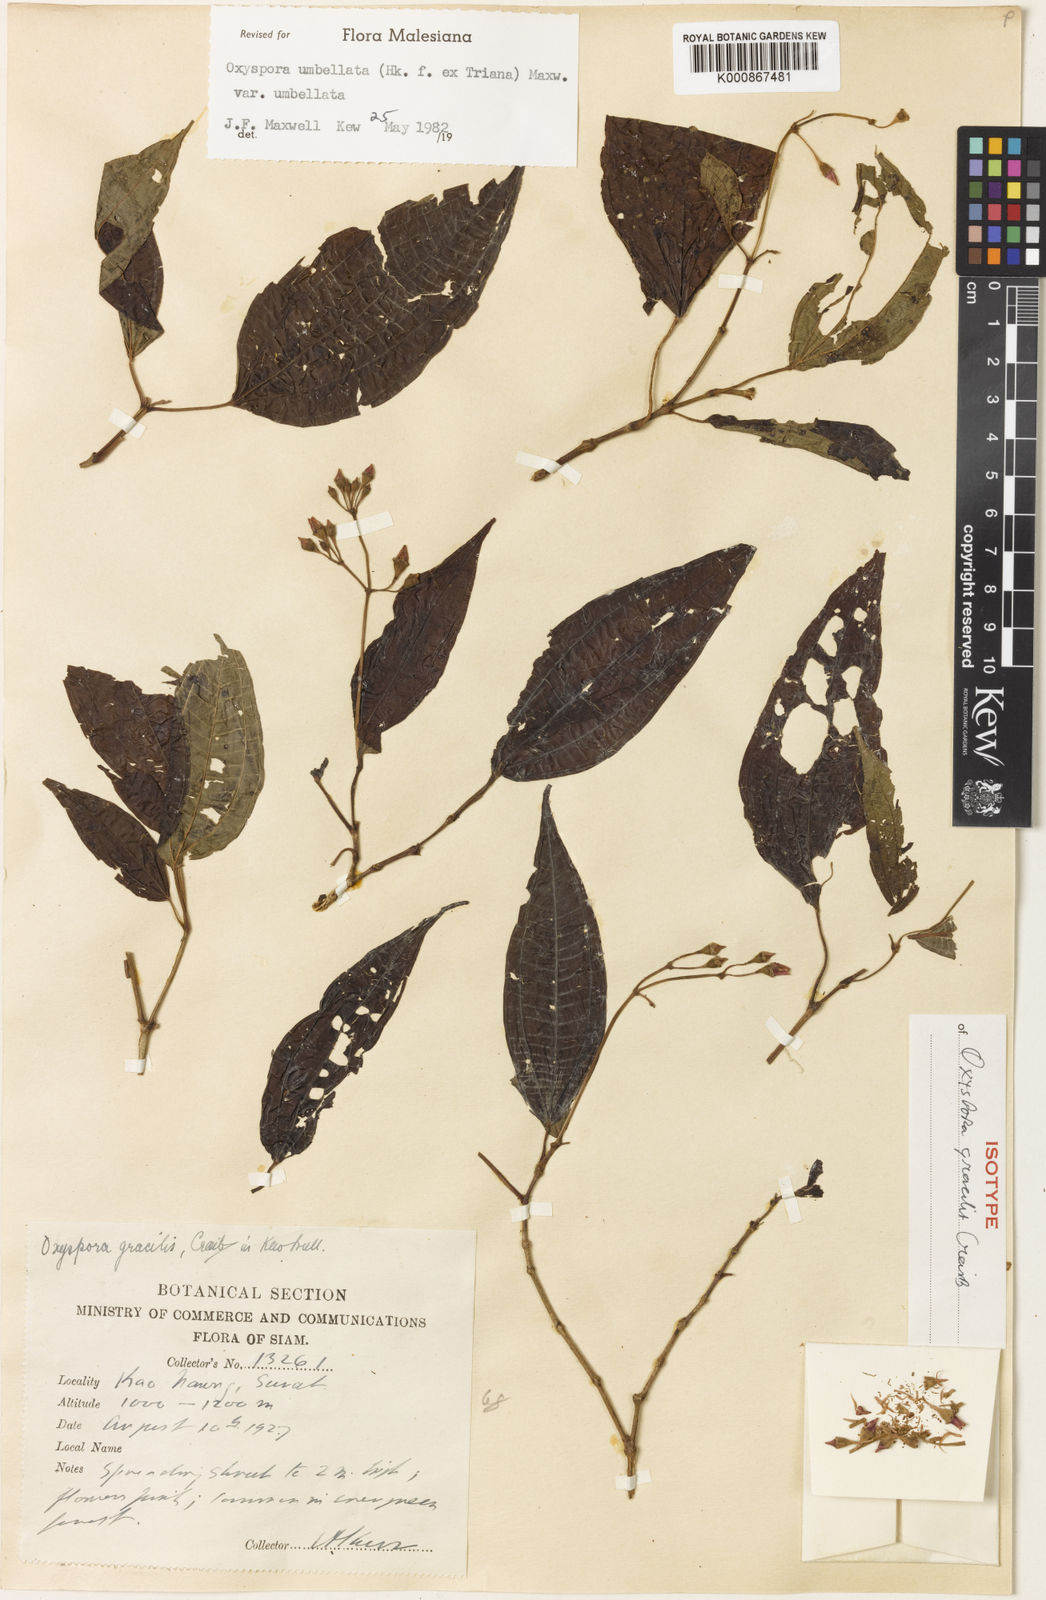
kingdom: Plantae
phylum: Tracheophyta
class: Magnoliopsida
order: Myrtales
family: Melastomataceae
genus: Allomorphia
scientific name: Allomorphia umbellulata
